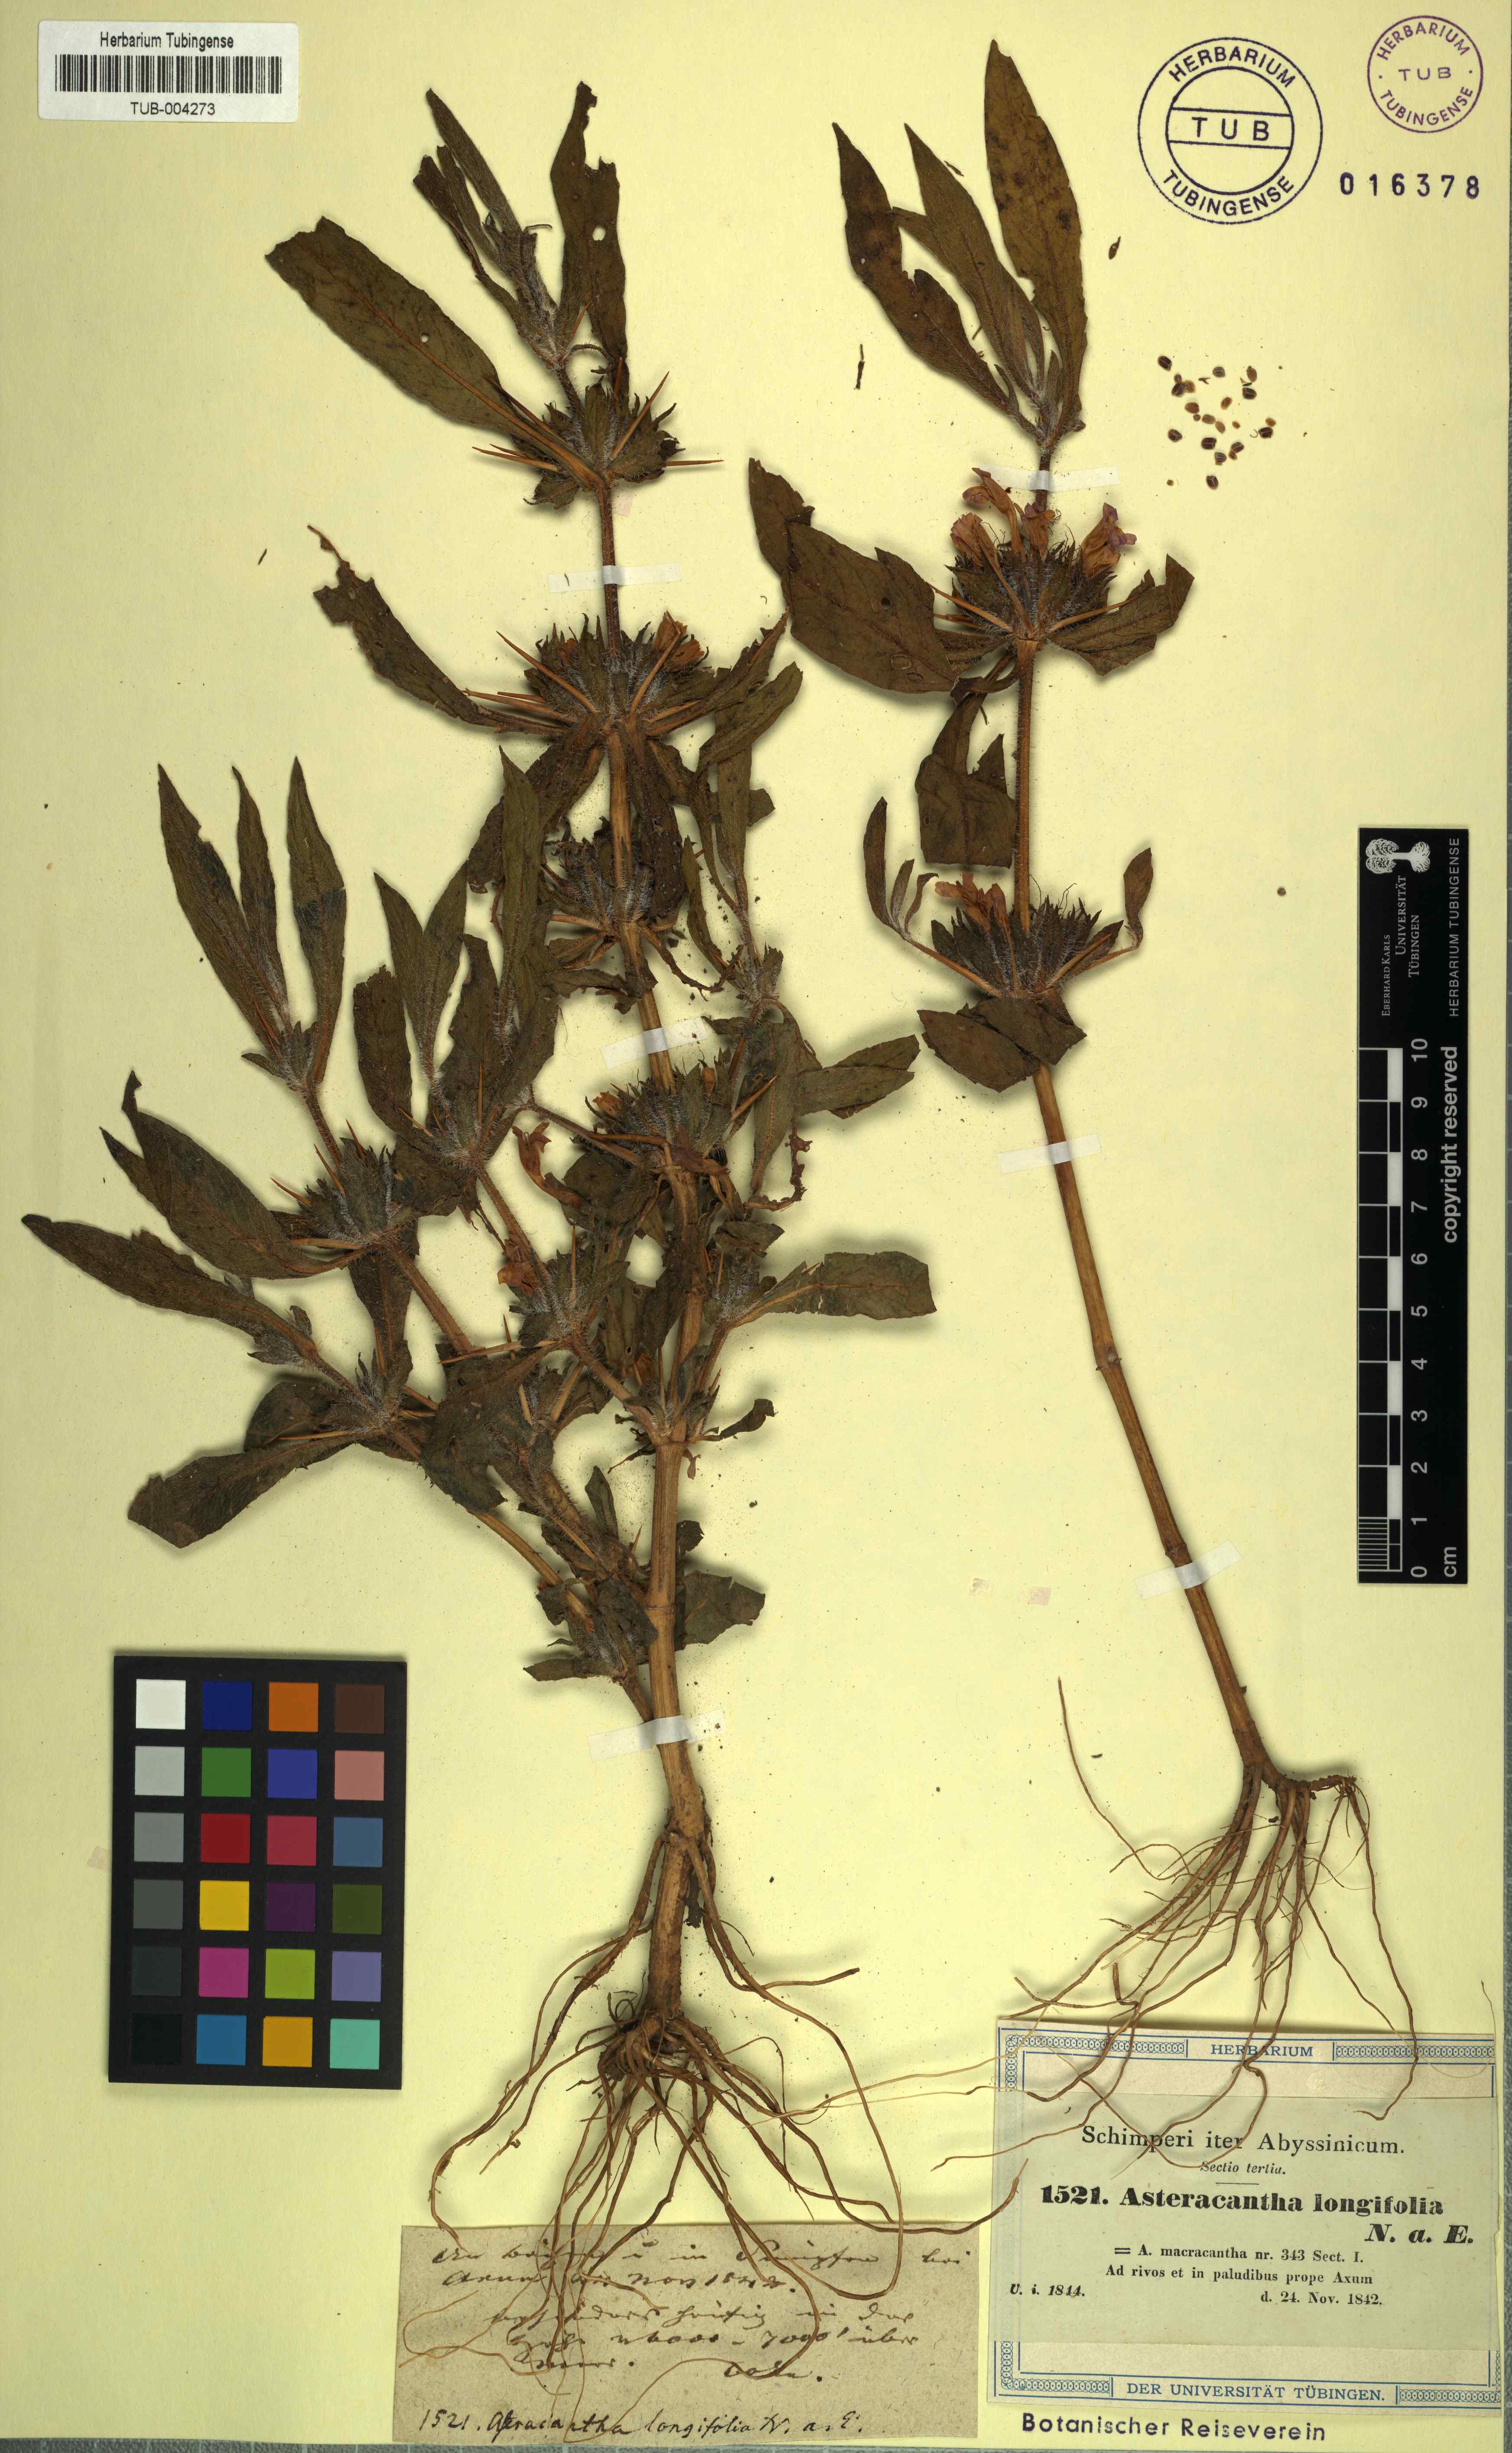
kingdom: Plantae
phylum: Tracheophyta
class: Magnoliopsida
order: Lamiales
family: Acanthaceae
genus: Hygrophila
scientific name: Hygrophila auriculata
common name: Hygrophila
